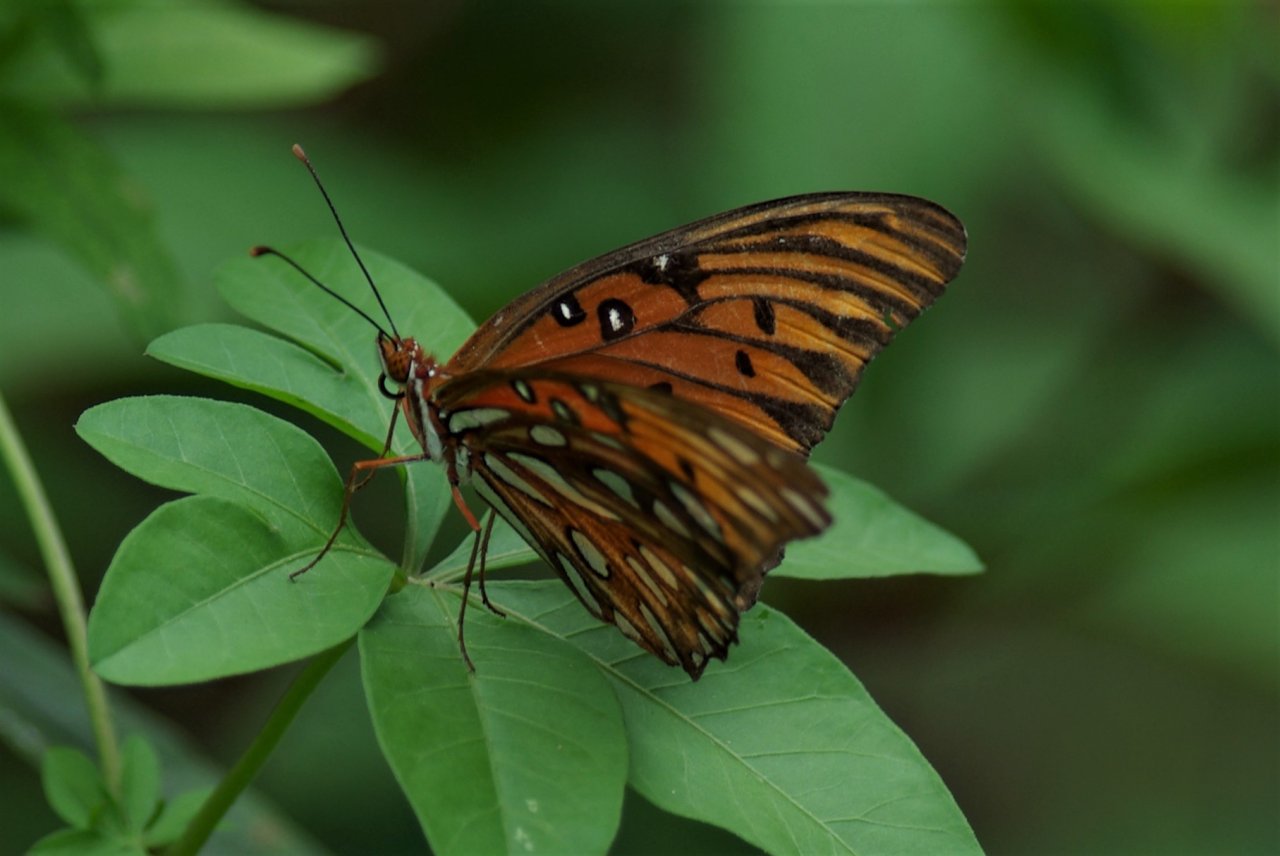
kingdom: Animalia
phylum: Arthropoda
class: Insecta
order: Lepidoptera
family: Nymphalidae
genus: Dione
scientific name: Dione vanillae
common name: Gulf Fritillary
